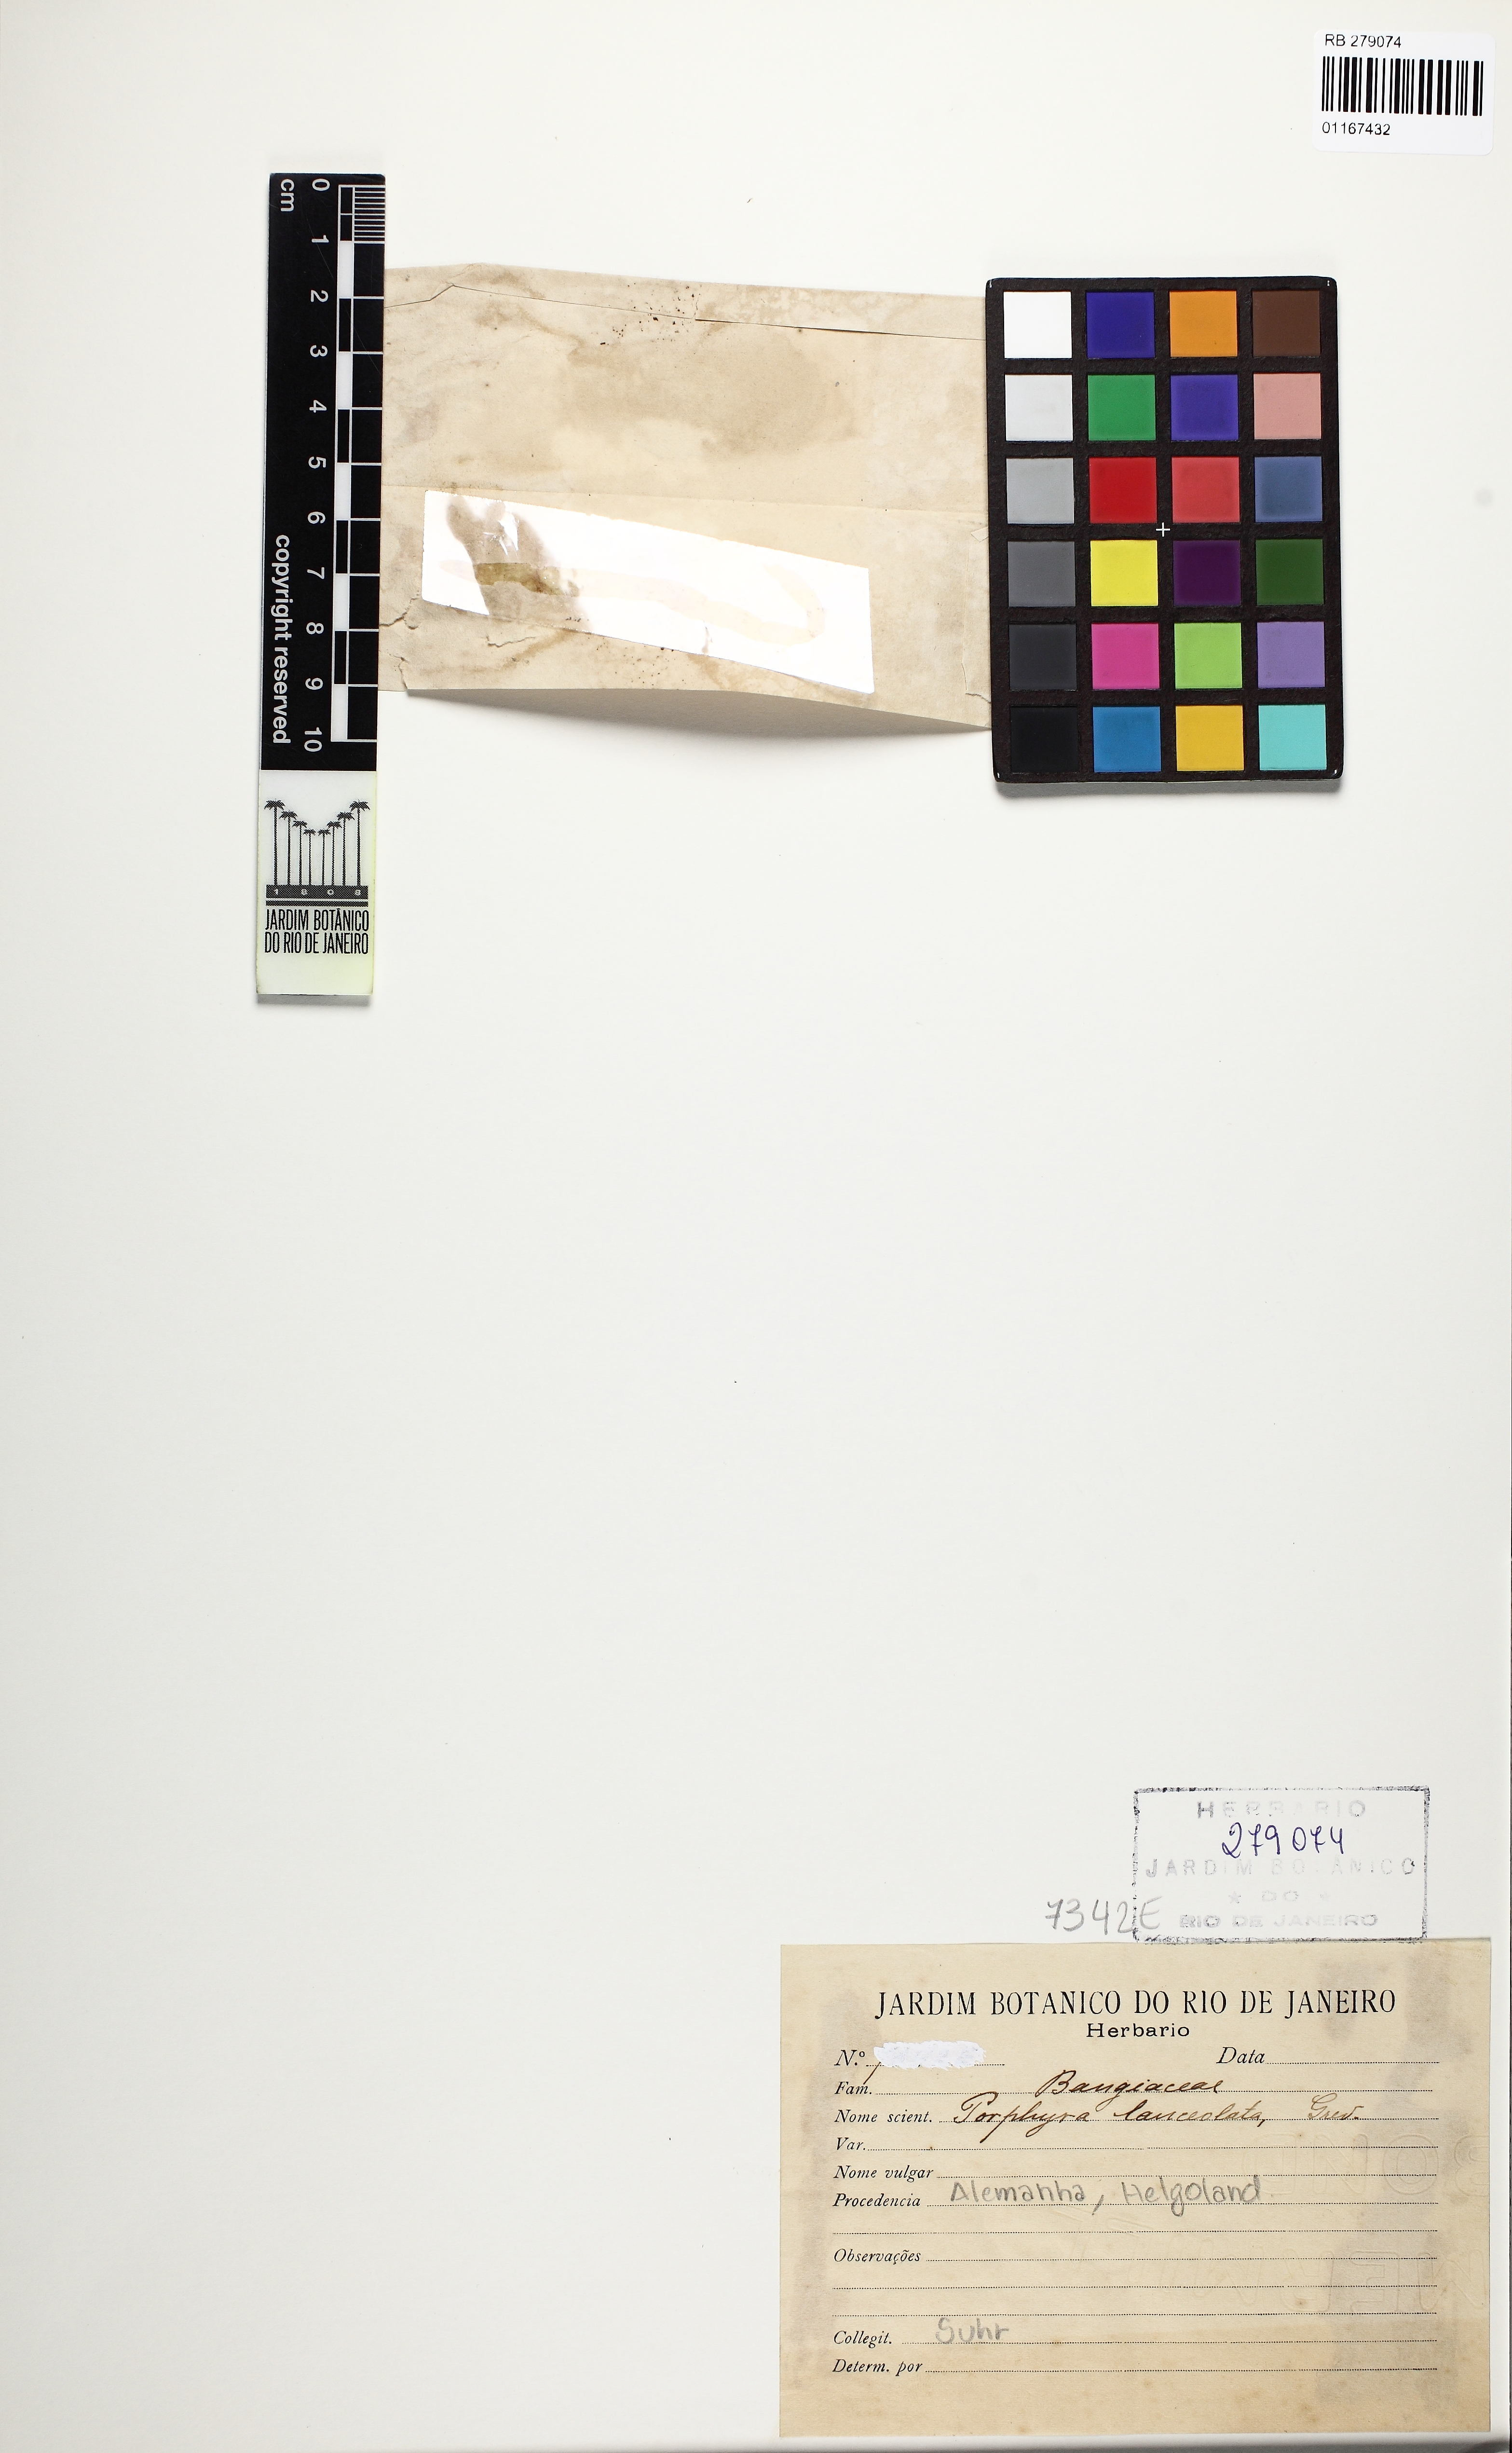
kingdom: Plantae
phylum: Rhodophyta
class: Bangiophyceae
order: Bangiales
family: Bangiaceae
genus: Porphyra
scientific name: Porphyra lanceolata
